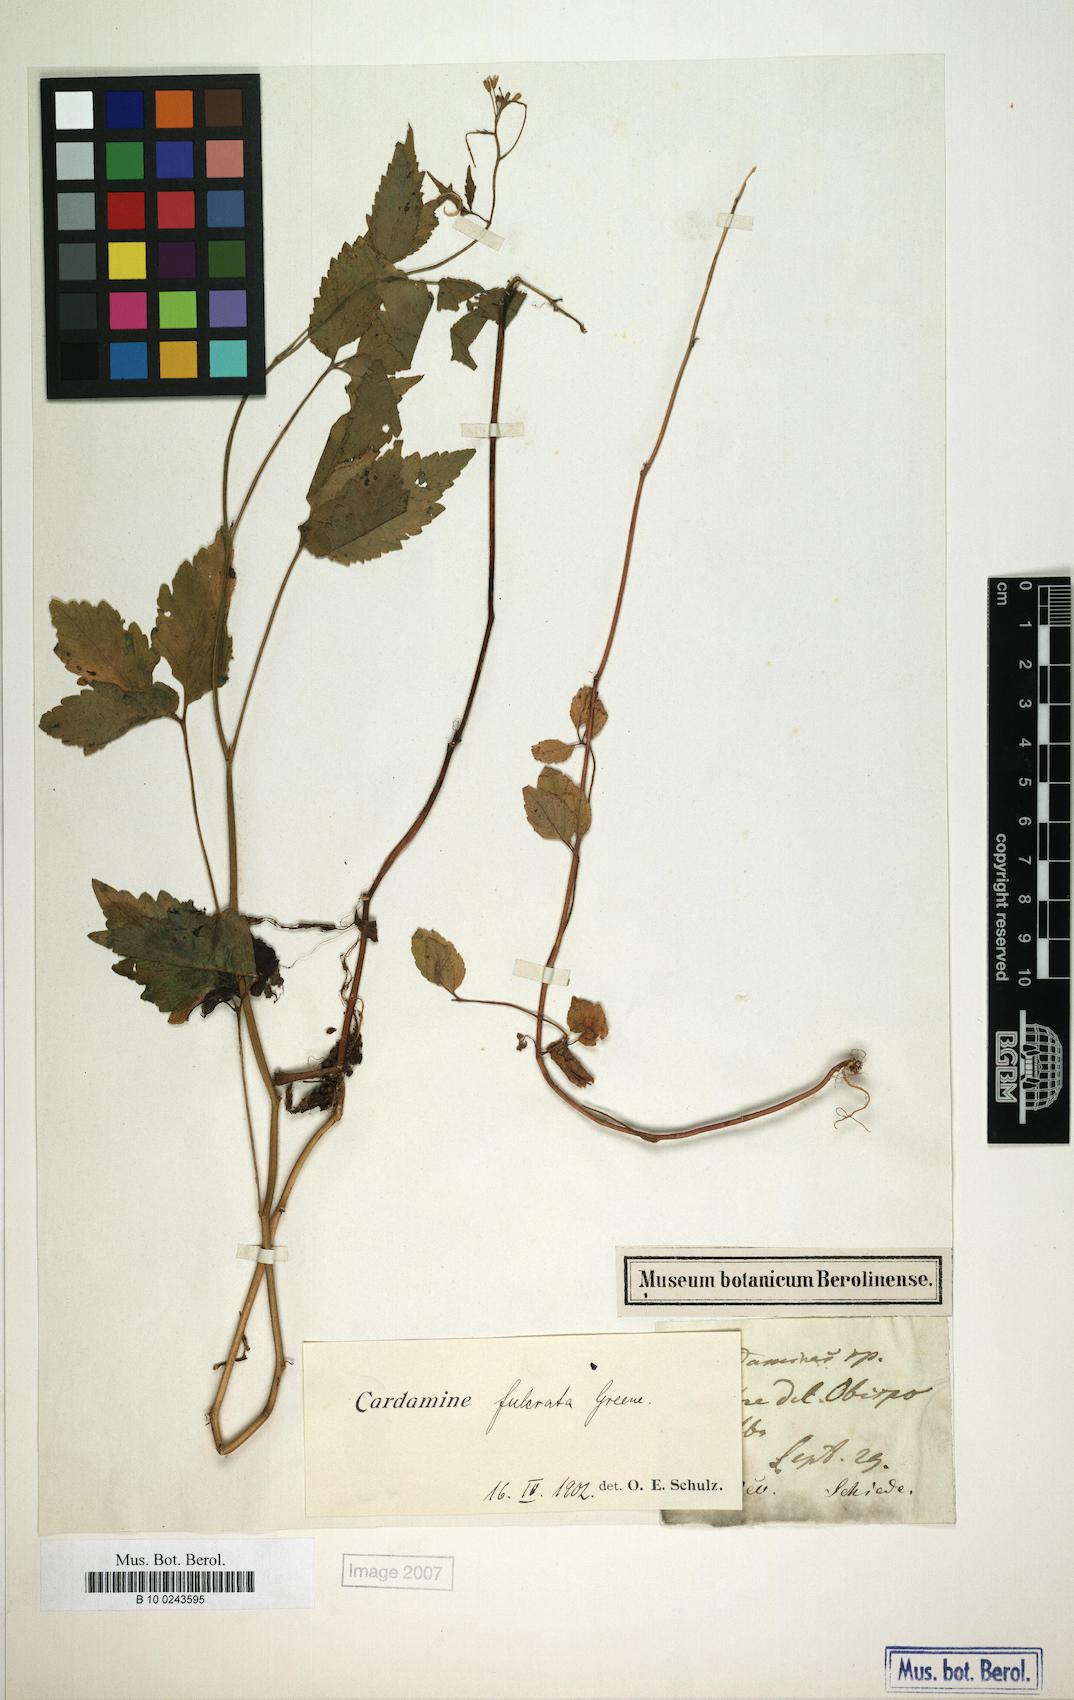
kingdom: Plantae
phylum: Tracheophyta
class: Magnoliopsida
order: Brassicales
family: Brassicaceae
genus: Cardamine
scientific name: Cardamine fulcrata
